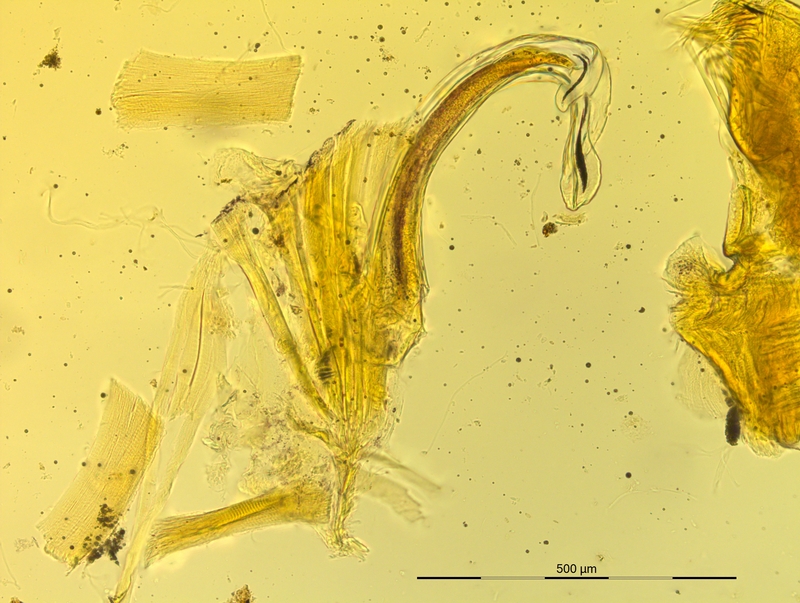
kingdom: Animalia
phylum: Arthropoda
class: Diplopoda
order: Chordeumatida
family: Craspedosomatidae
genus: Pyrgocyphosoma
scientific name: Pyrgocyphosoma ormeanum
